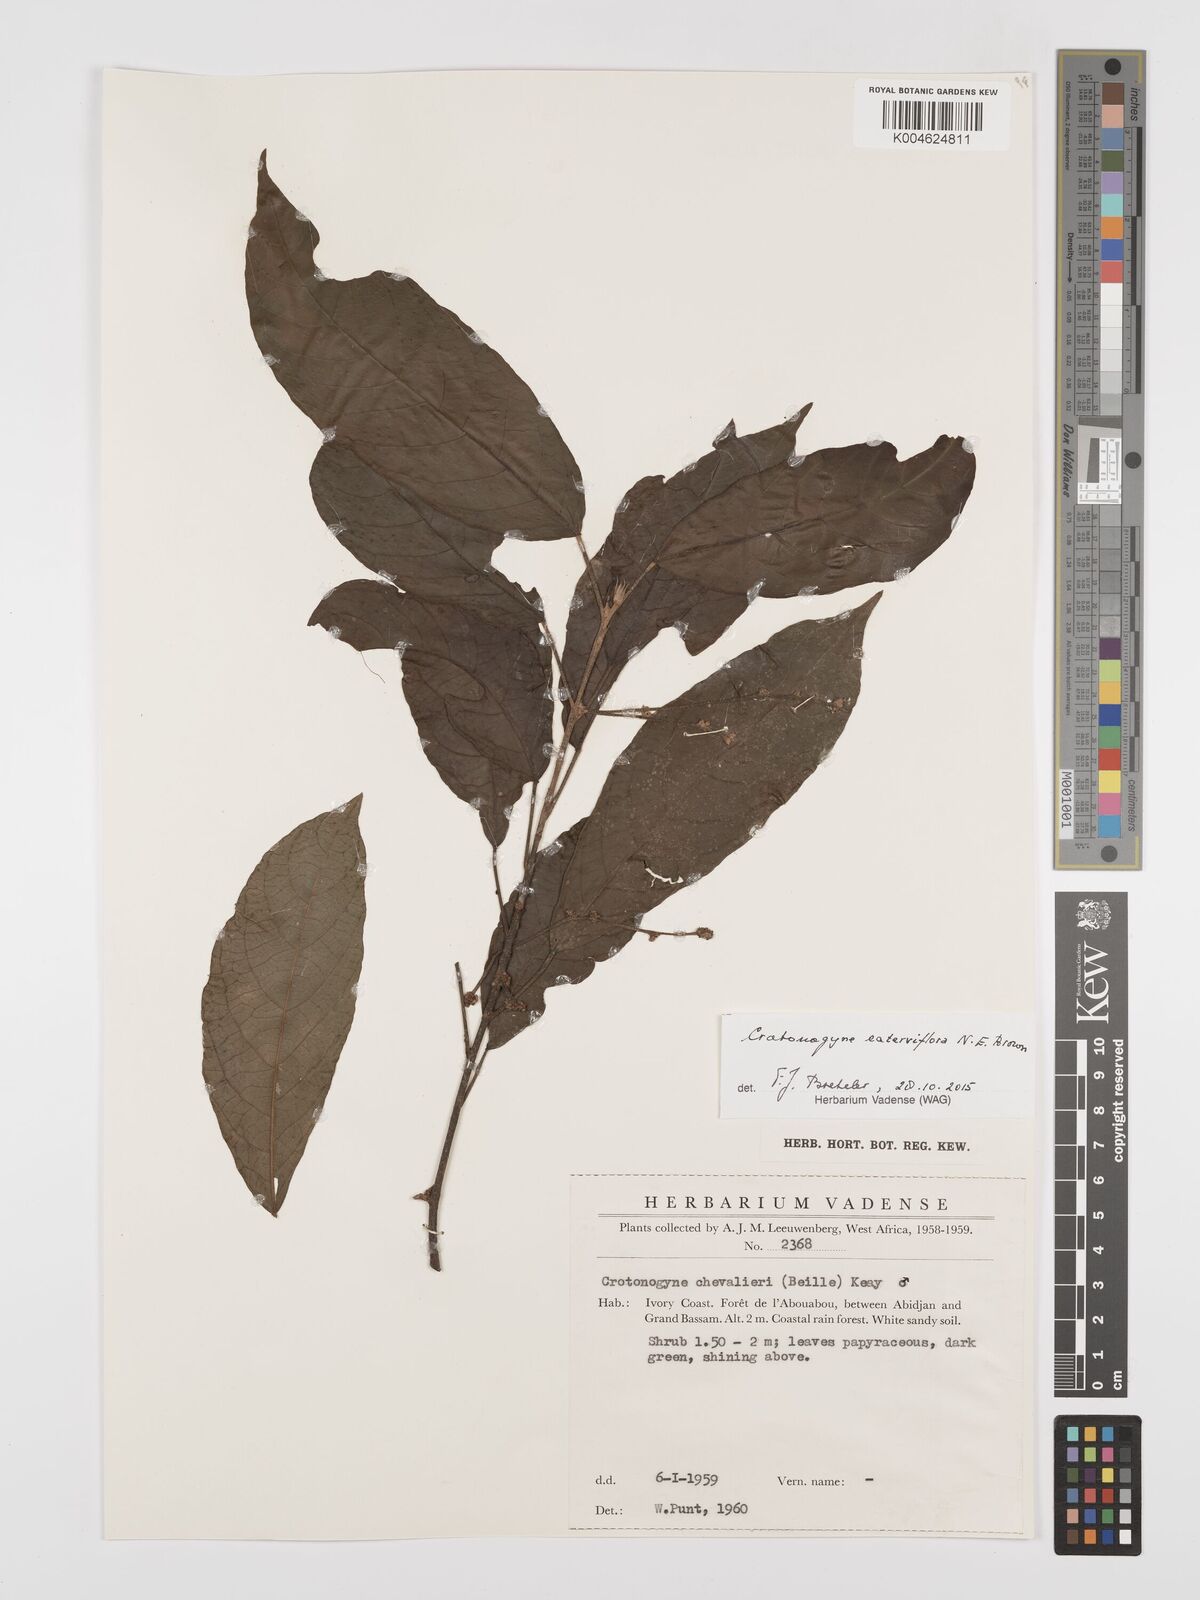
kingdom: Plantae
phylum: Tracheophyta
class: Magnoliopsida
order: Malpighiales
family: Euphorbiaceae
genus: Crotonogyne
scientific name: Crotonogyne caterviflora
